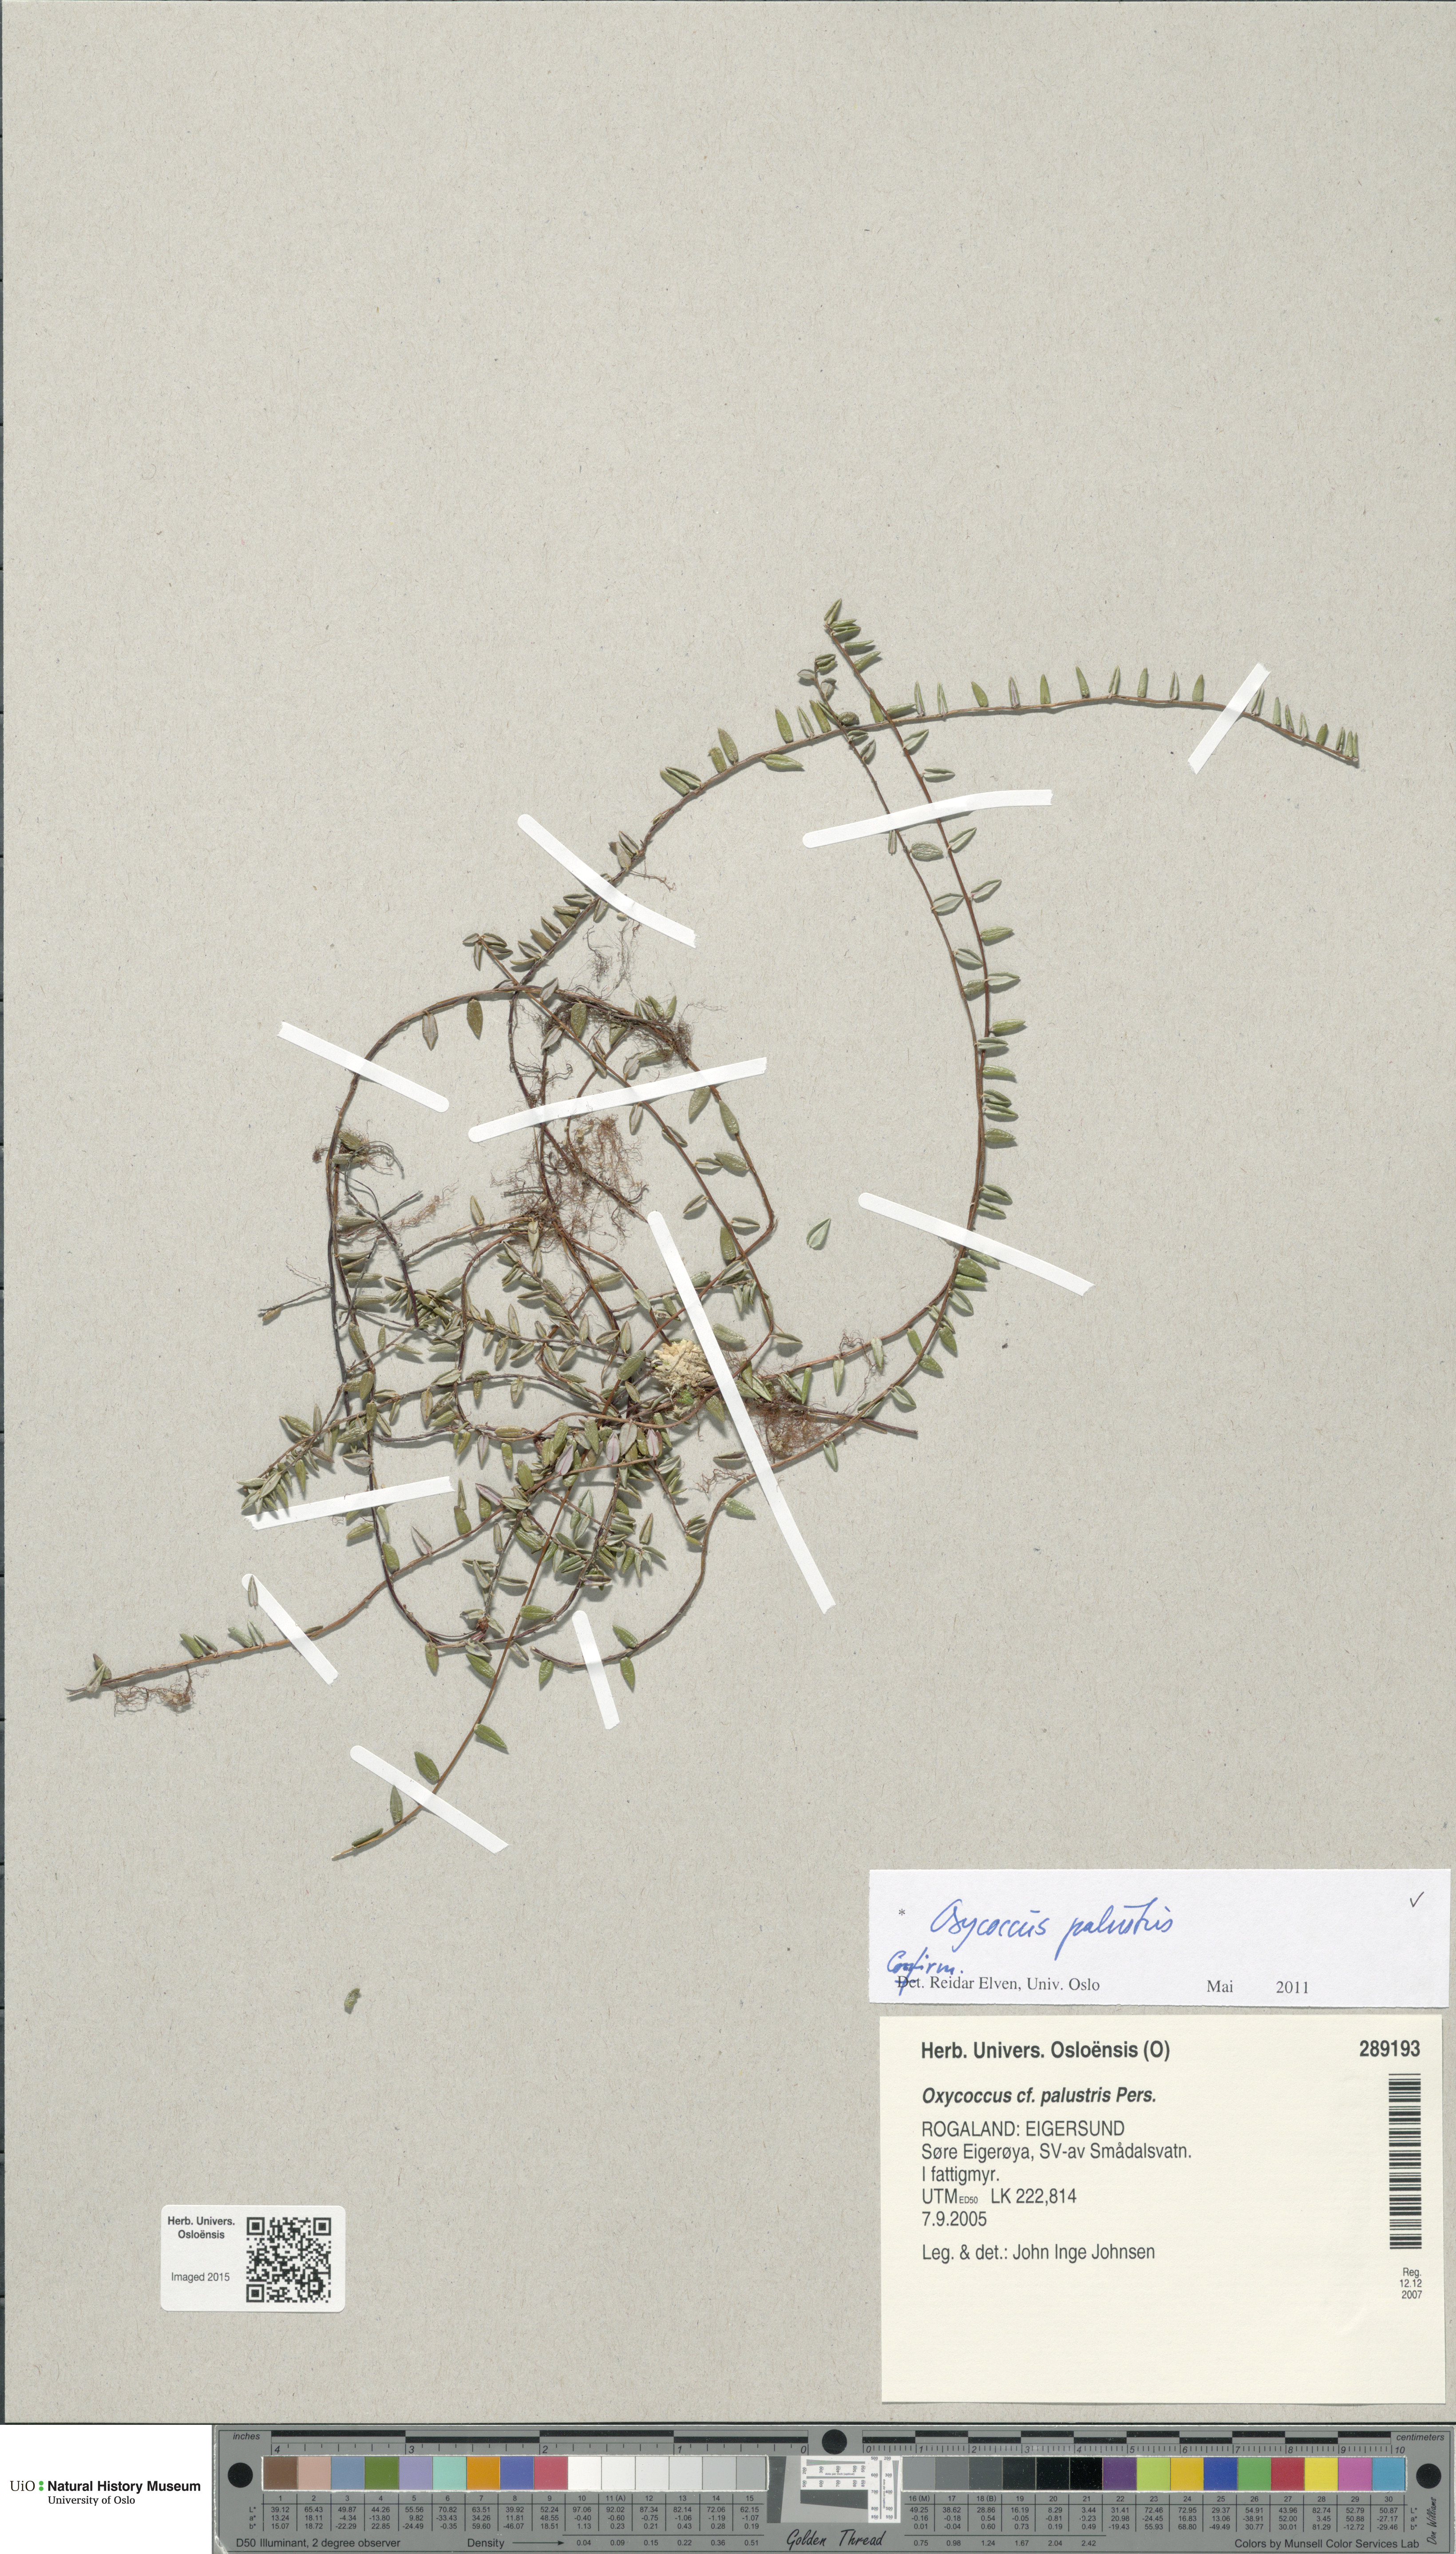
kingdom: Plantae
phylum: Tracheophyta
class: Magnoliopsida
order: Ericales
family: Ericaceae
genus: Vaccinium
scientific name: Vaccinium oxycoccos
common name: Cranberry
